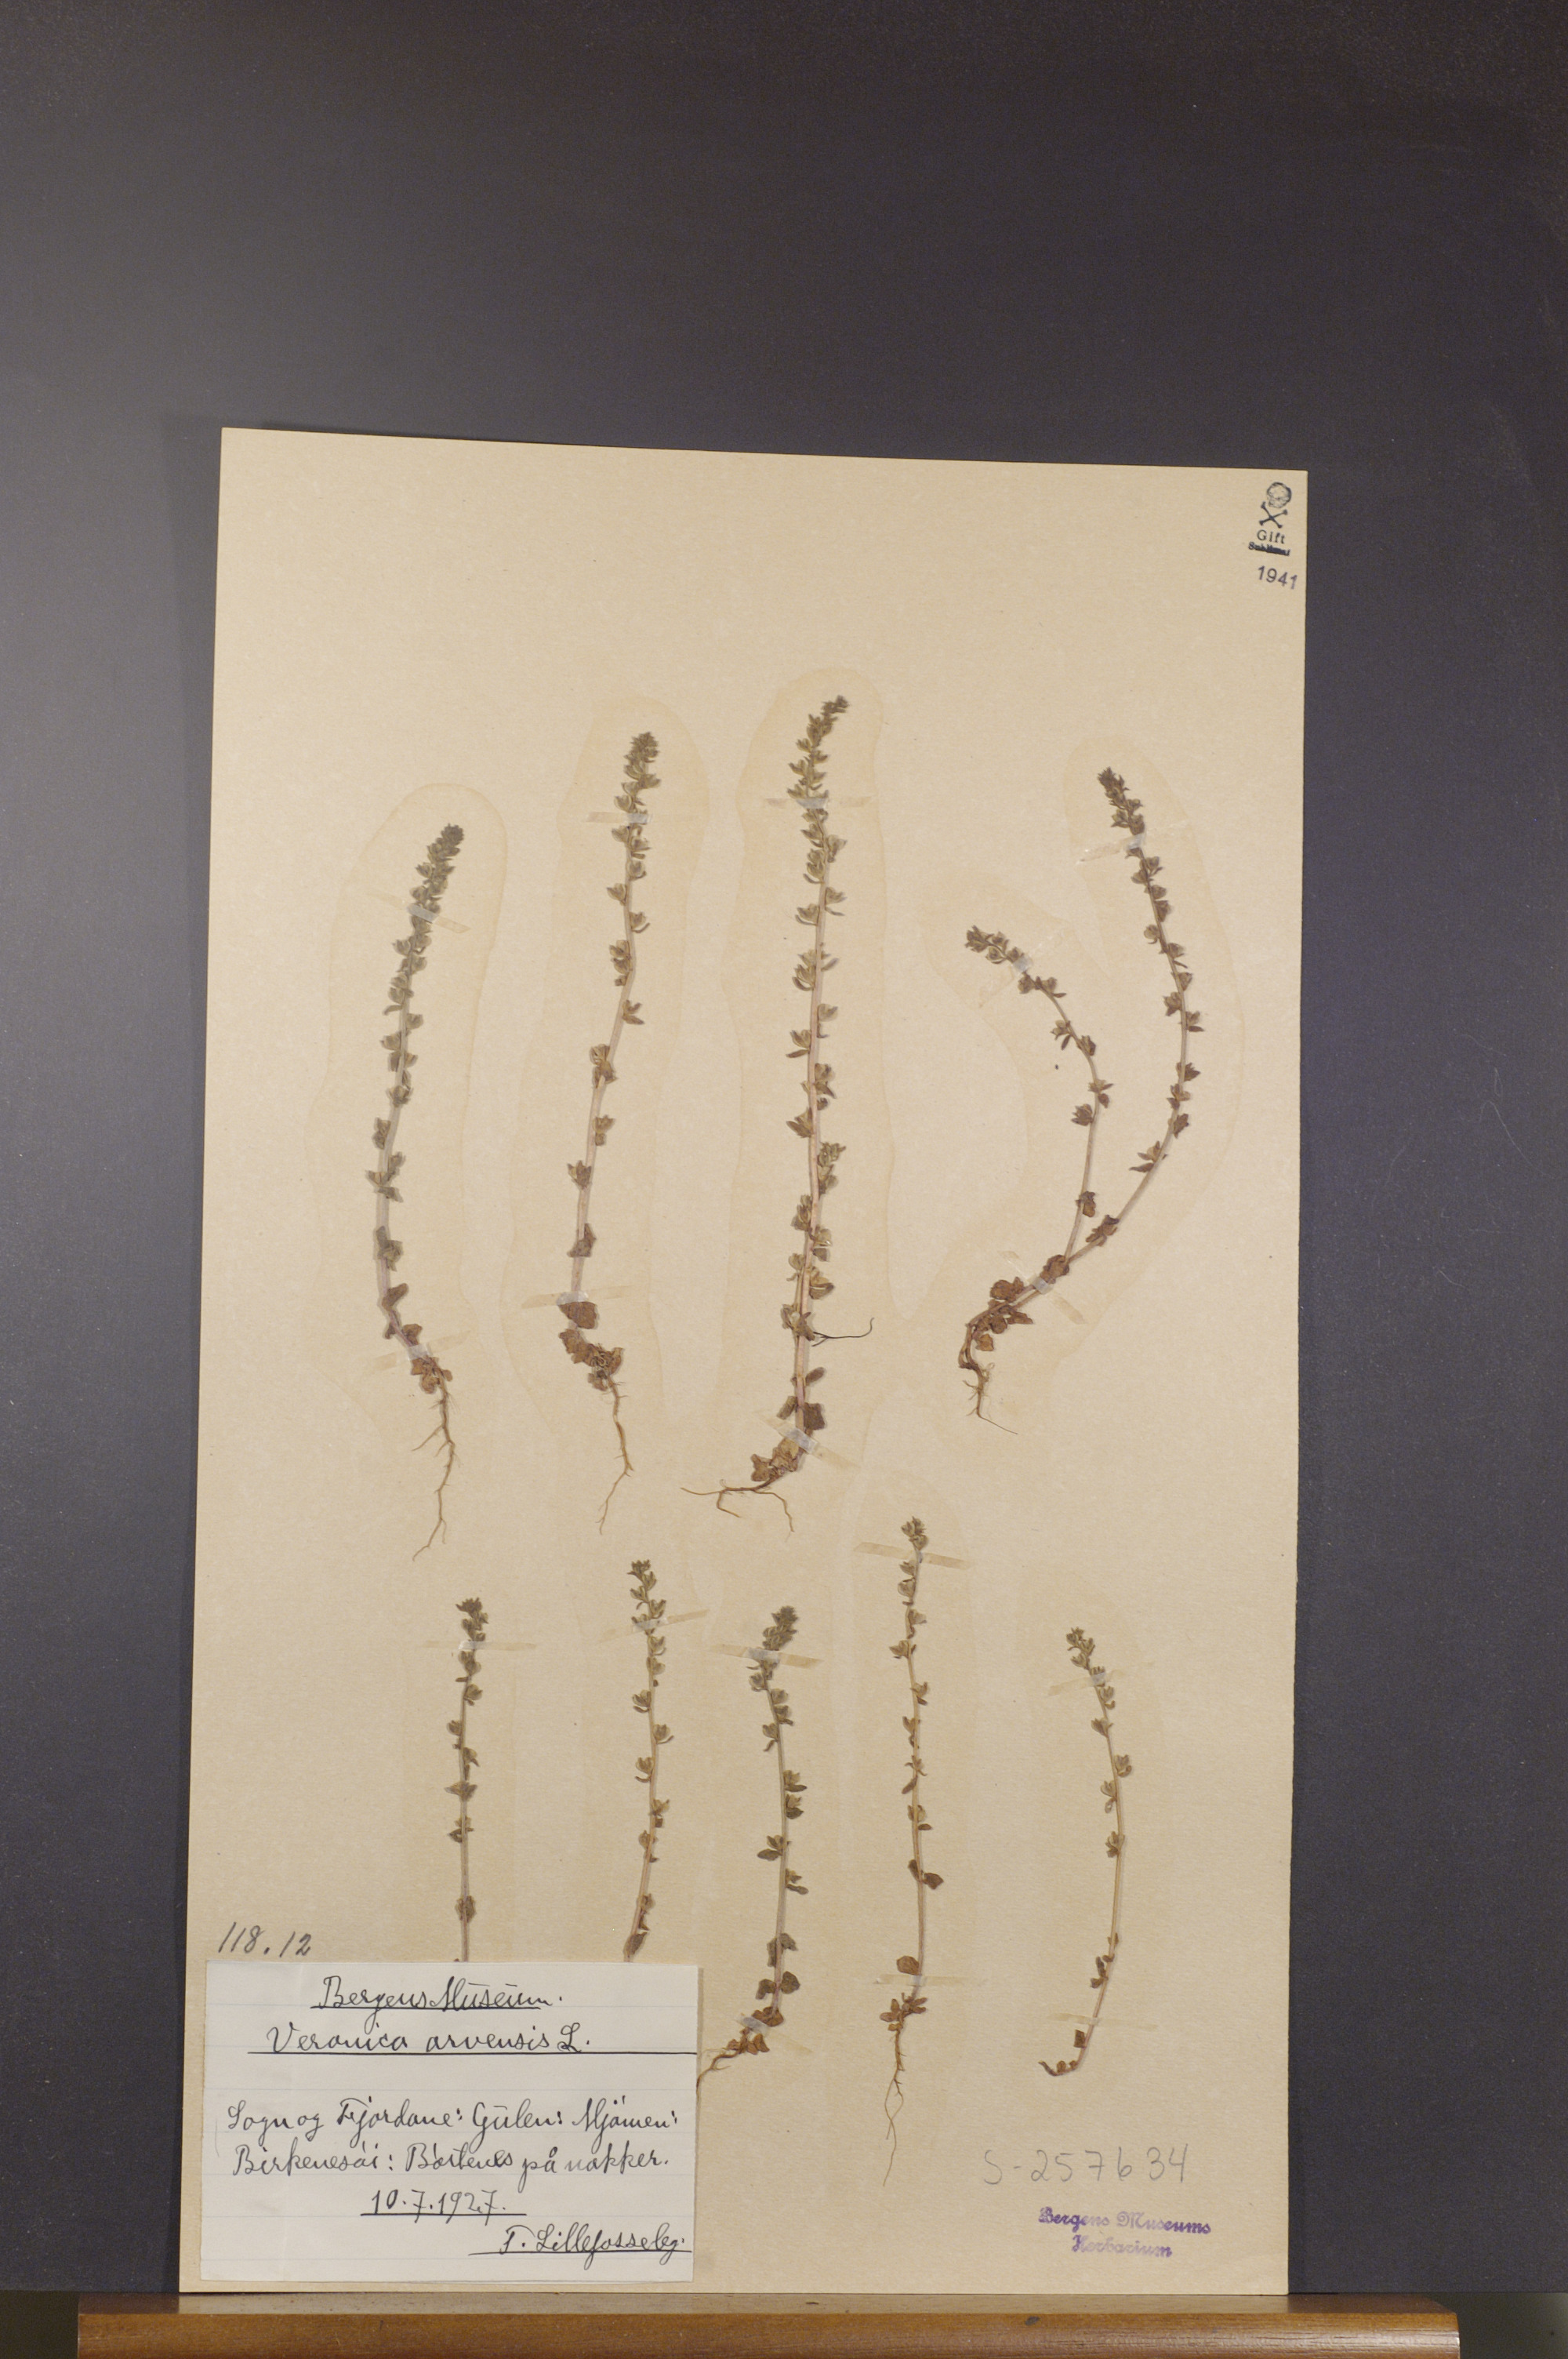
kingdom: Plantae
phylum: Tracheophyta
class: Magnoliopsida
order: Lamiales
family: Plantaginaceae
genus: Veronica
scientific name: Veronica arvensis
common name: Corn speedwell
